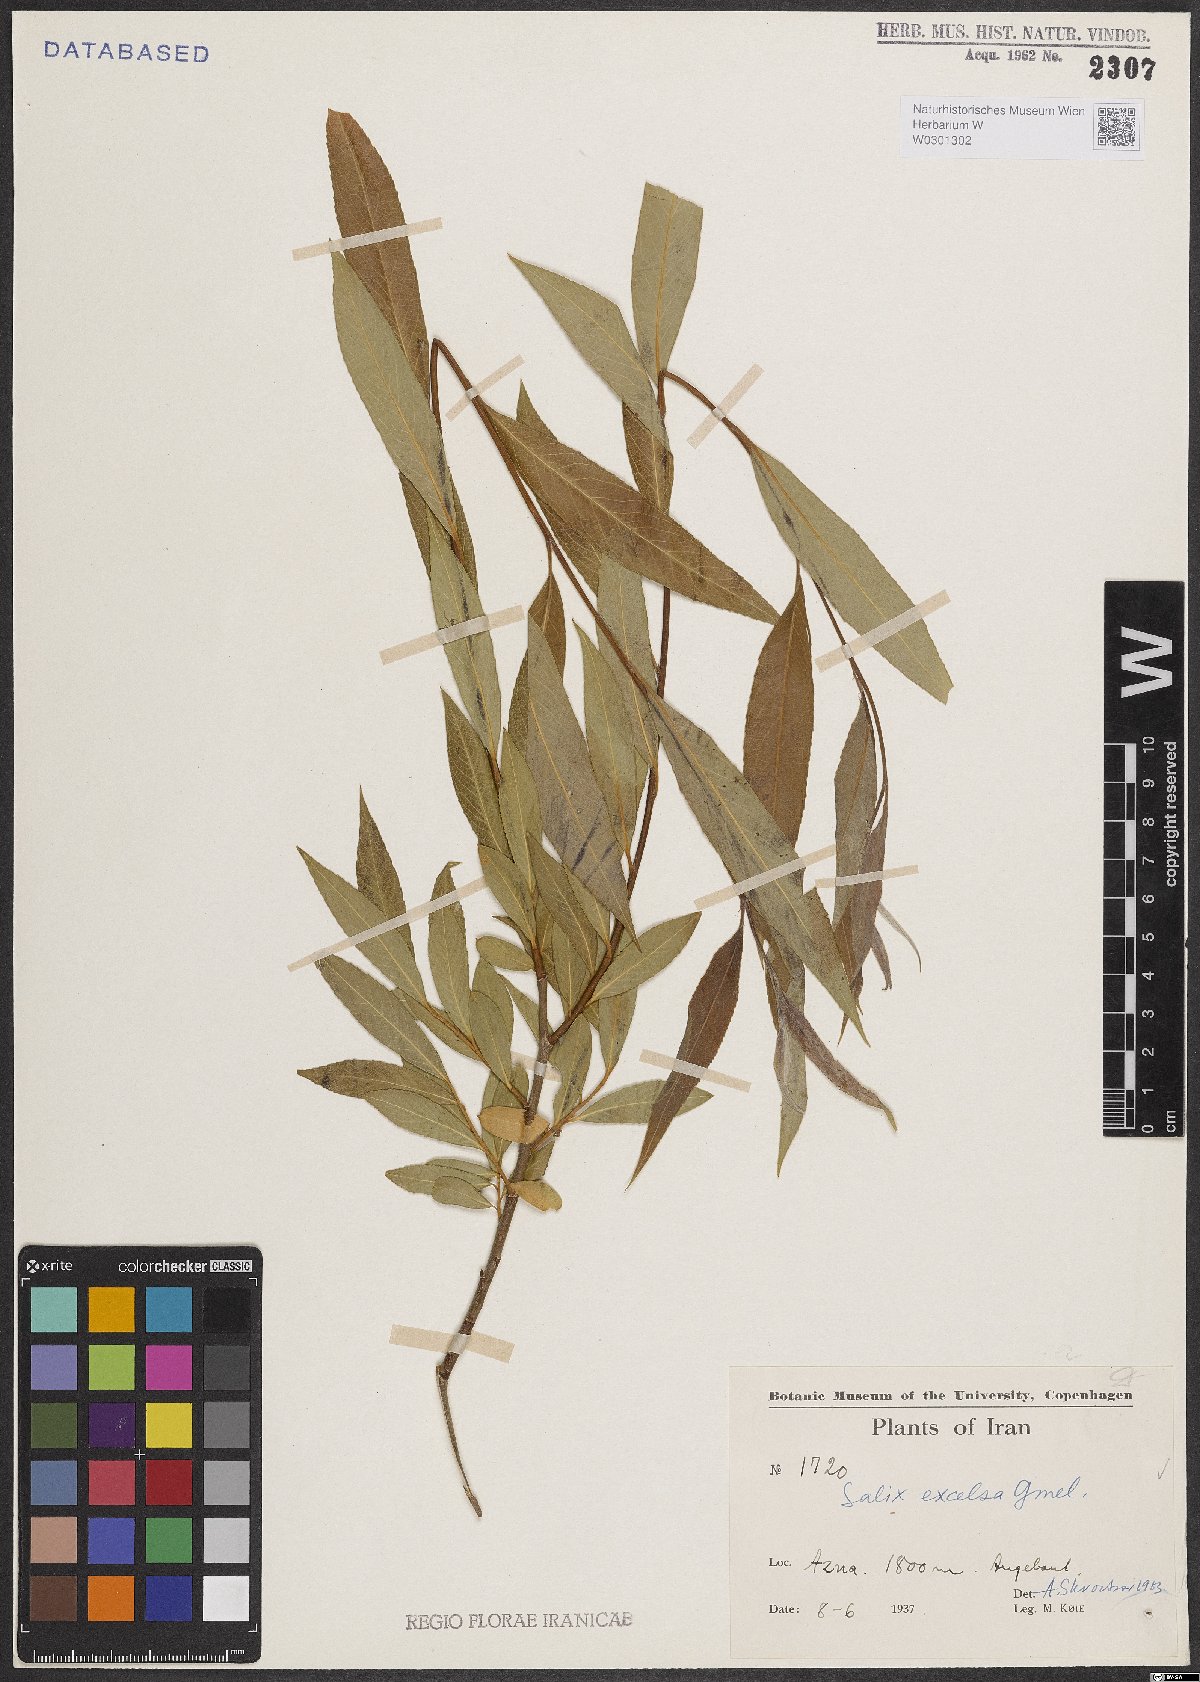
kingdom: Plantae
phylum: Tracheophyta
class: Magnoliopsida
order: Malpighiales
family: Salicaceae
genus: Salix
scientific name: Salix excelsa
